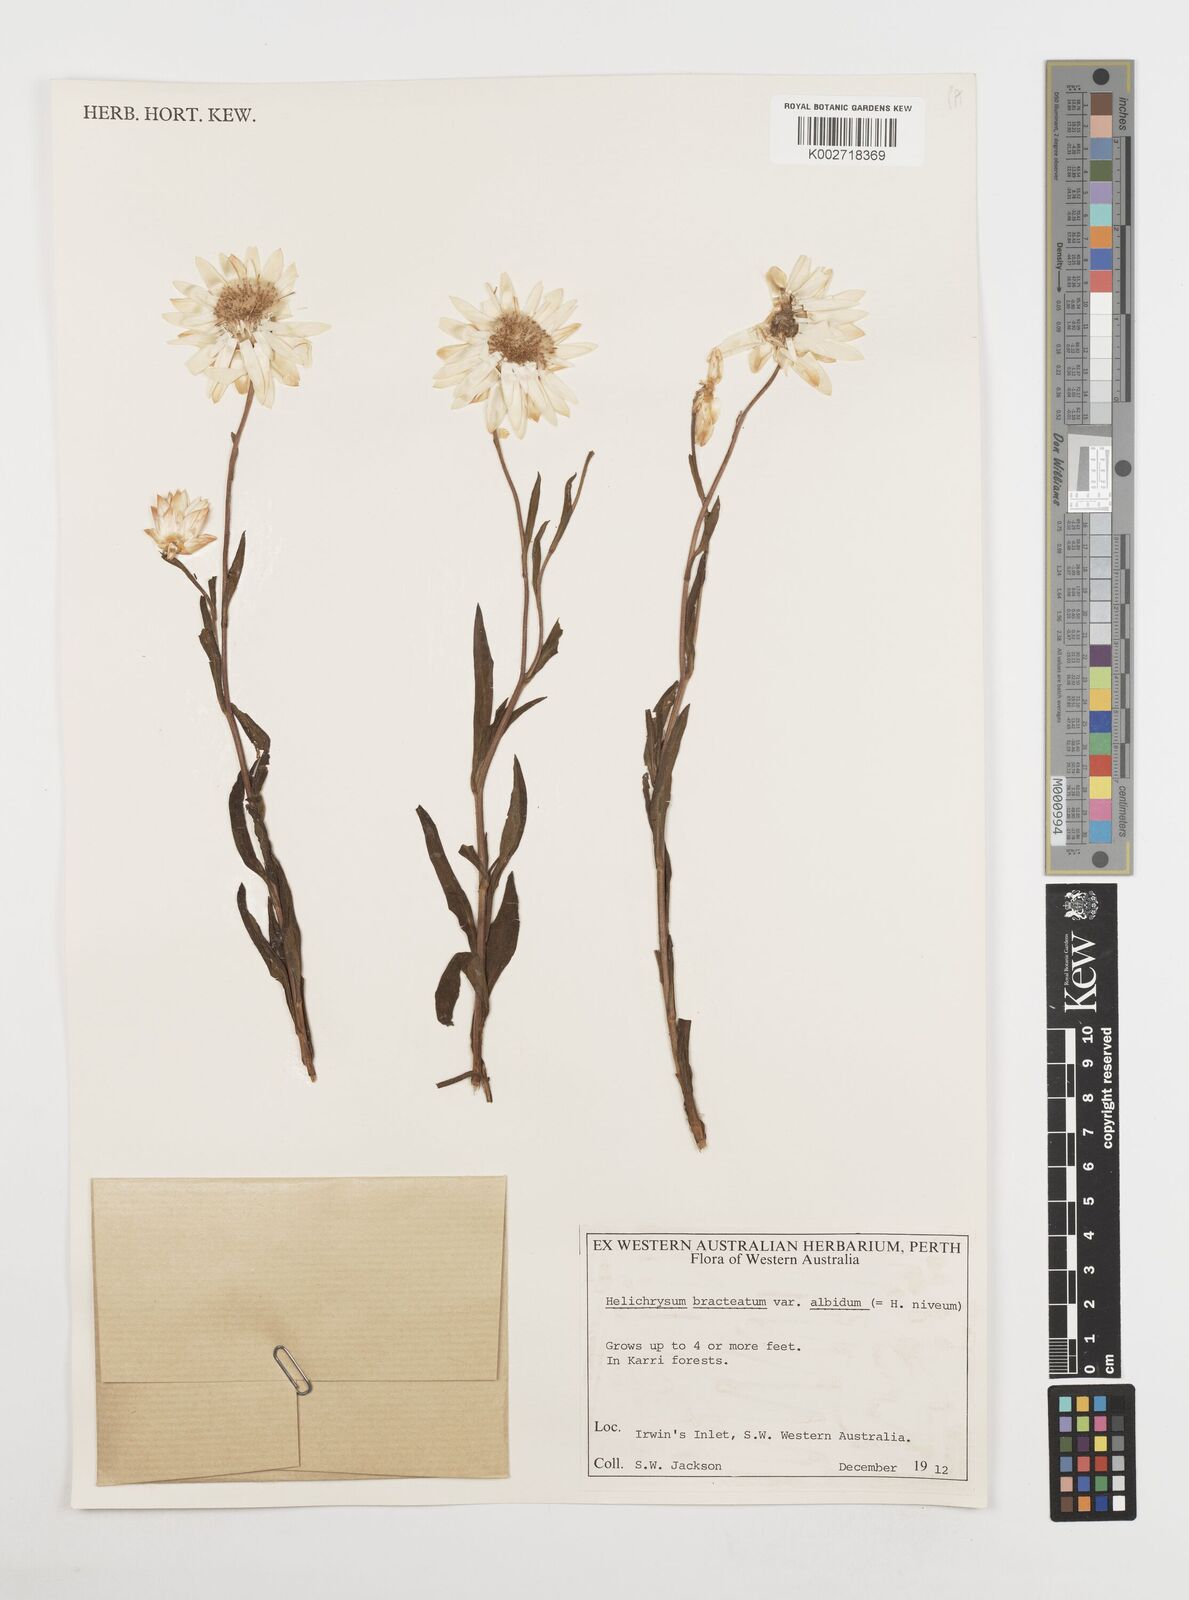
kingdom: Plantae
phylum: Tracheophyta
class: Magnoliopsida
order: Asterales
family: Asteraceae
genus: Xerochrysum
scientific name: Xerochrysum bracteatum
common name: Bracted strawflower
